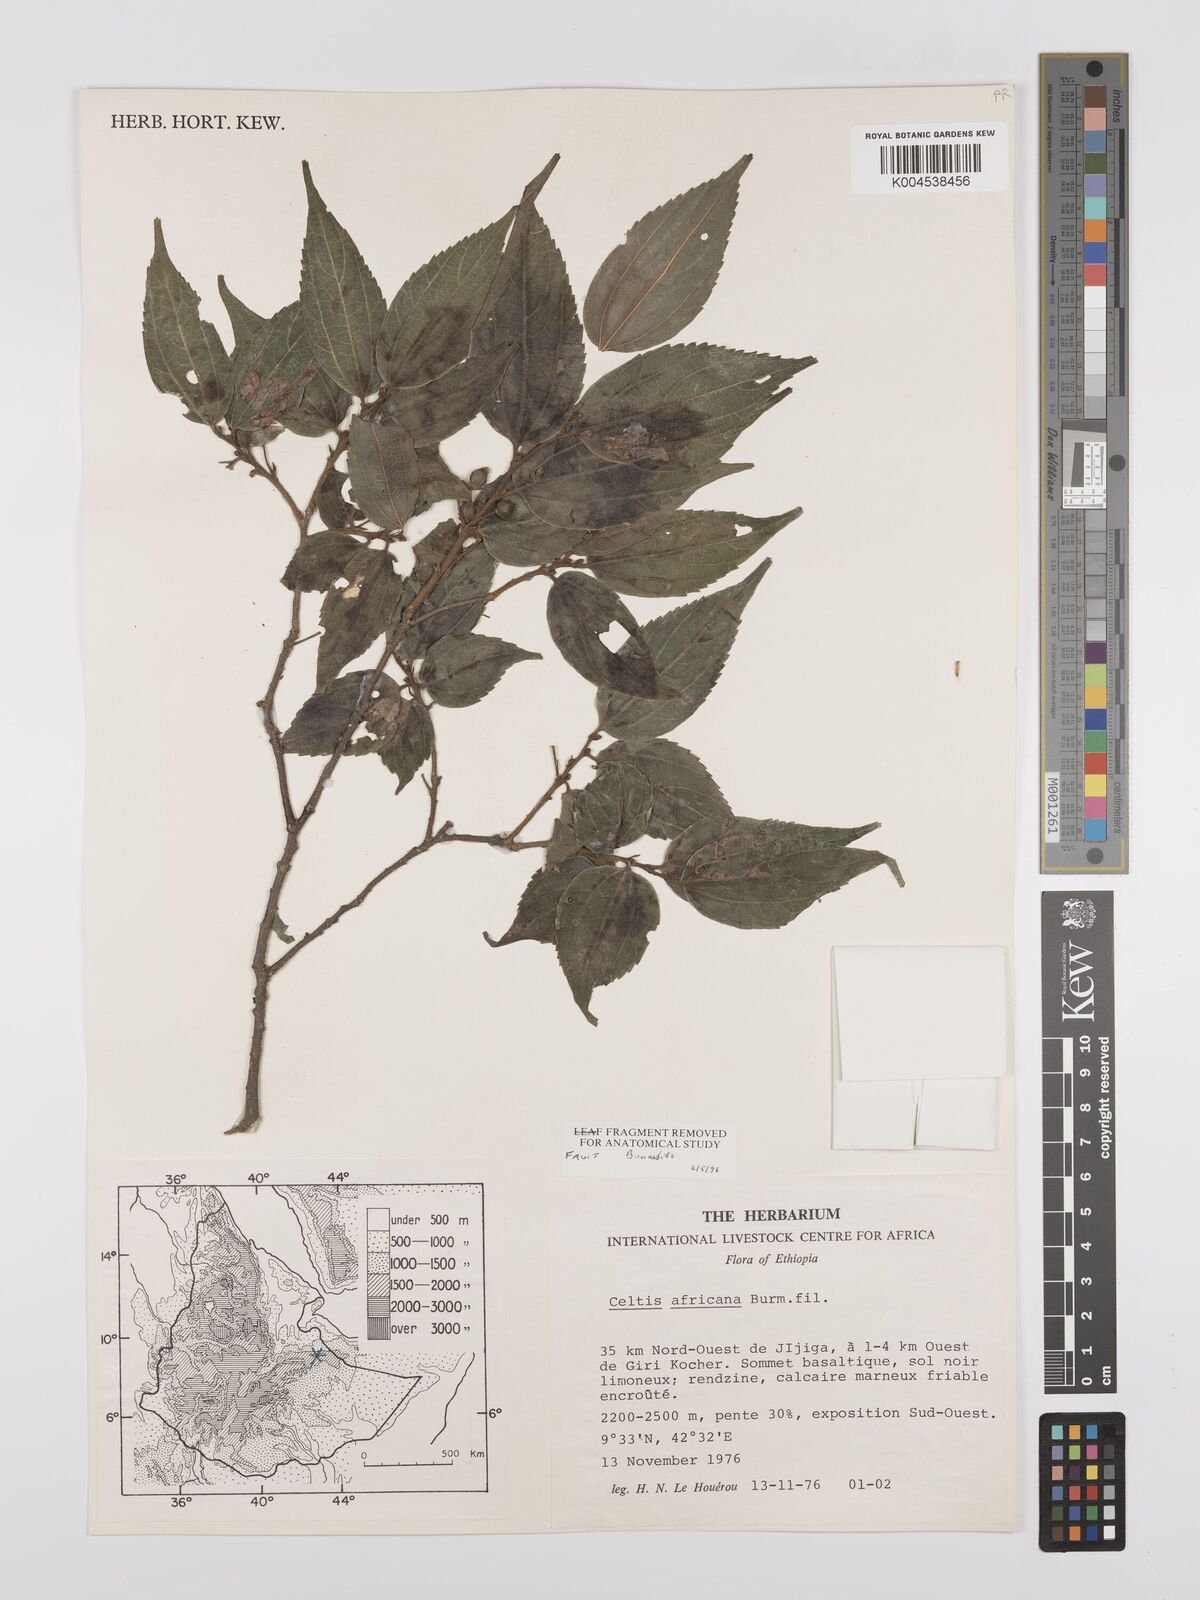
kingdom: Plantae
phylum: Tracheophyta
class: Magnoliopsida
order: Rosales
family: Cannabaceae
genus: Celtis
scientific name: Celtis africana
